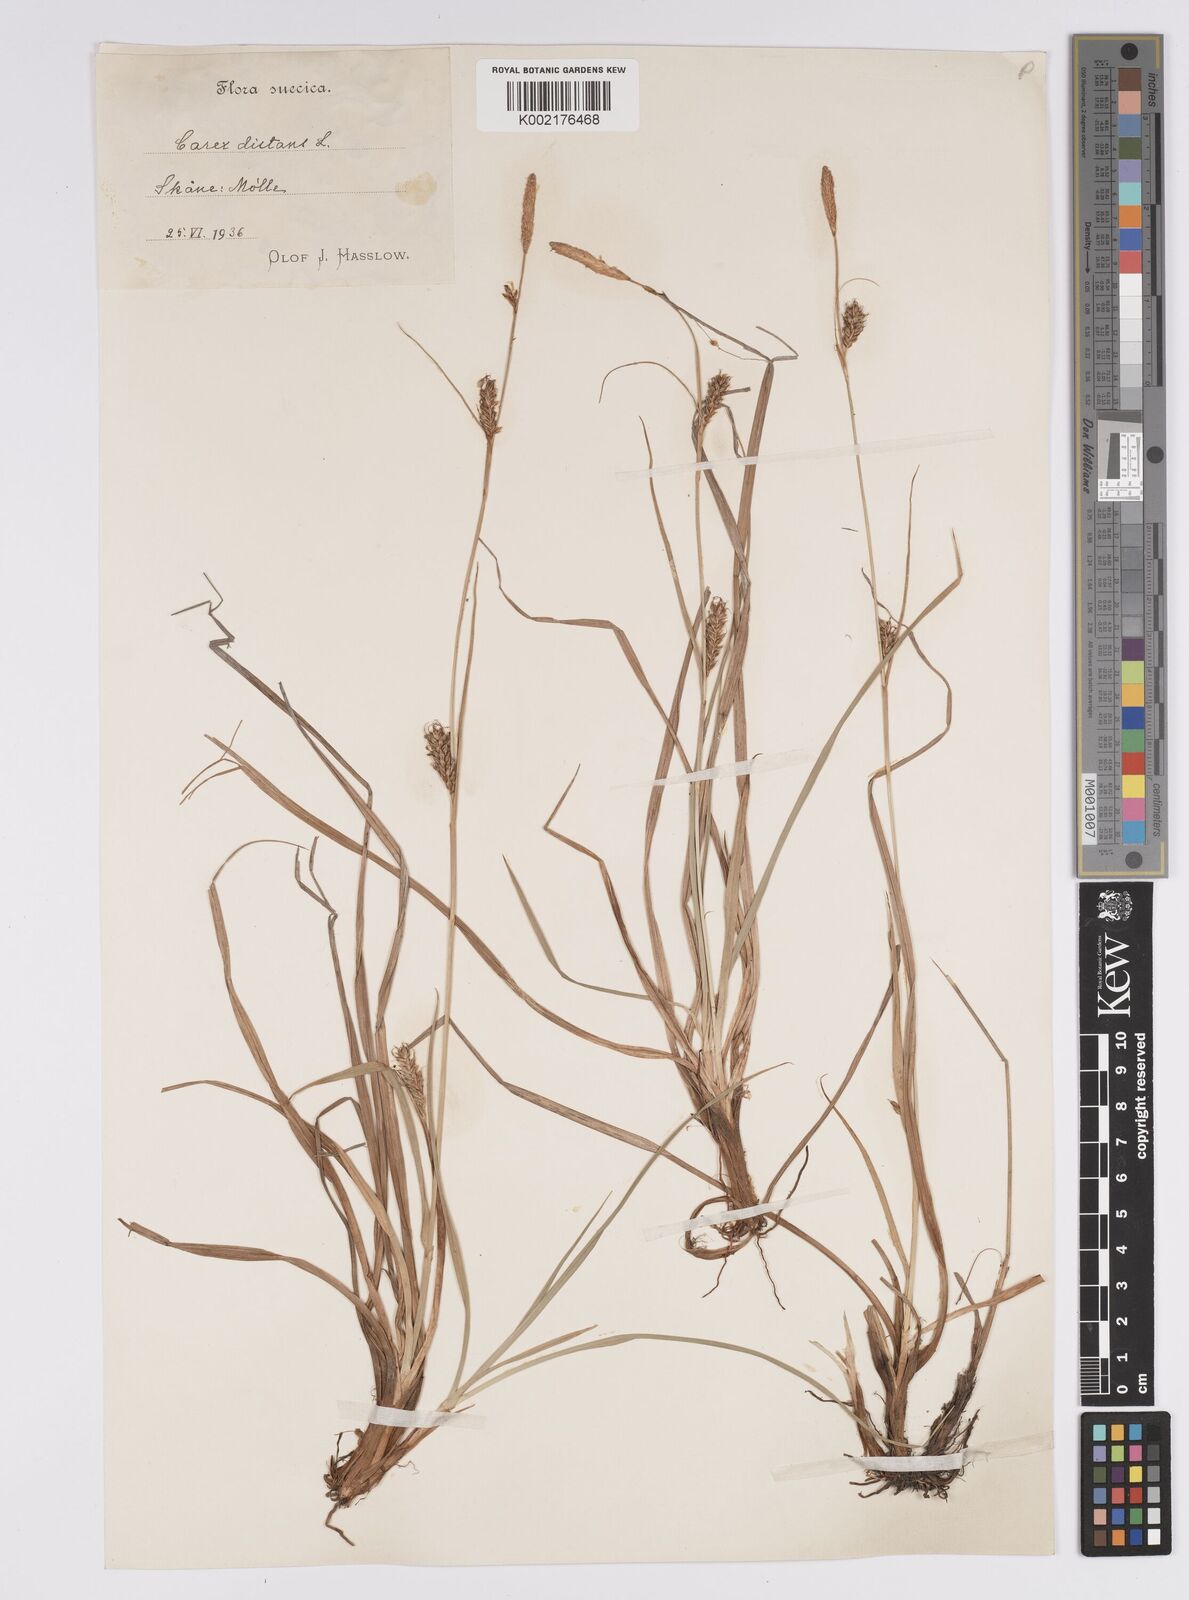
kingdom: Plantae
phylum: Tracheophyta
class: Liliopsida
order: Poales
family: Cyperaceae
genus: Carex
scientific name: Carex distans
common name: Distant sedge
